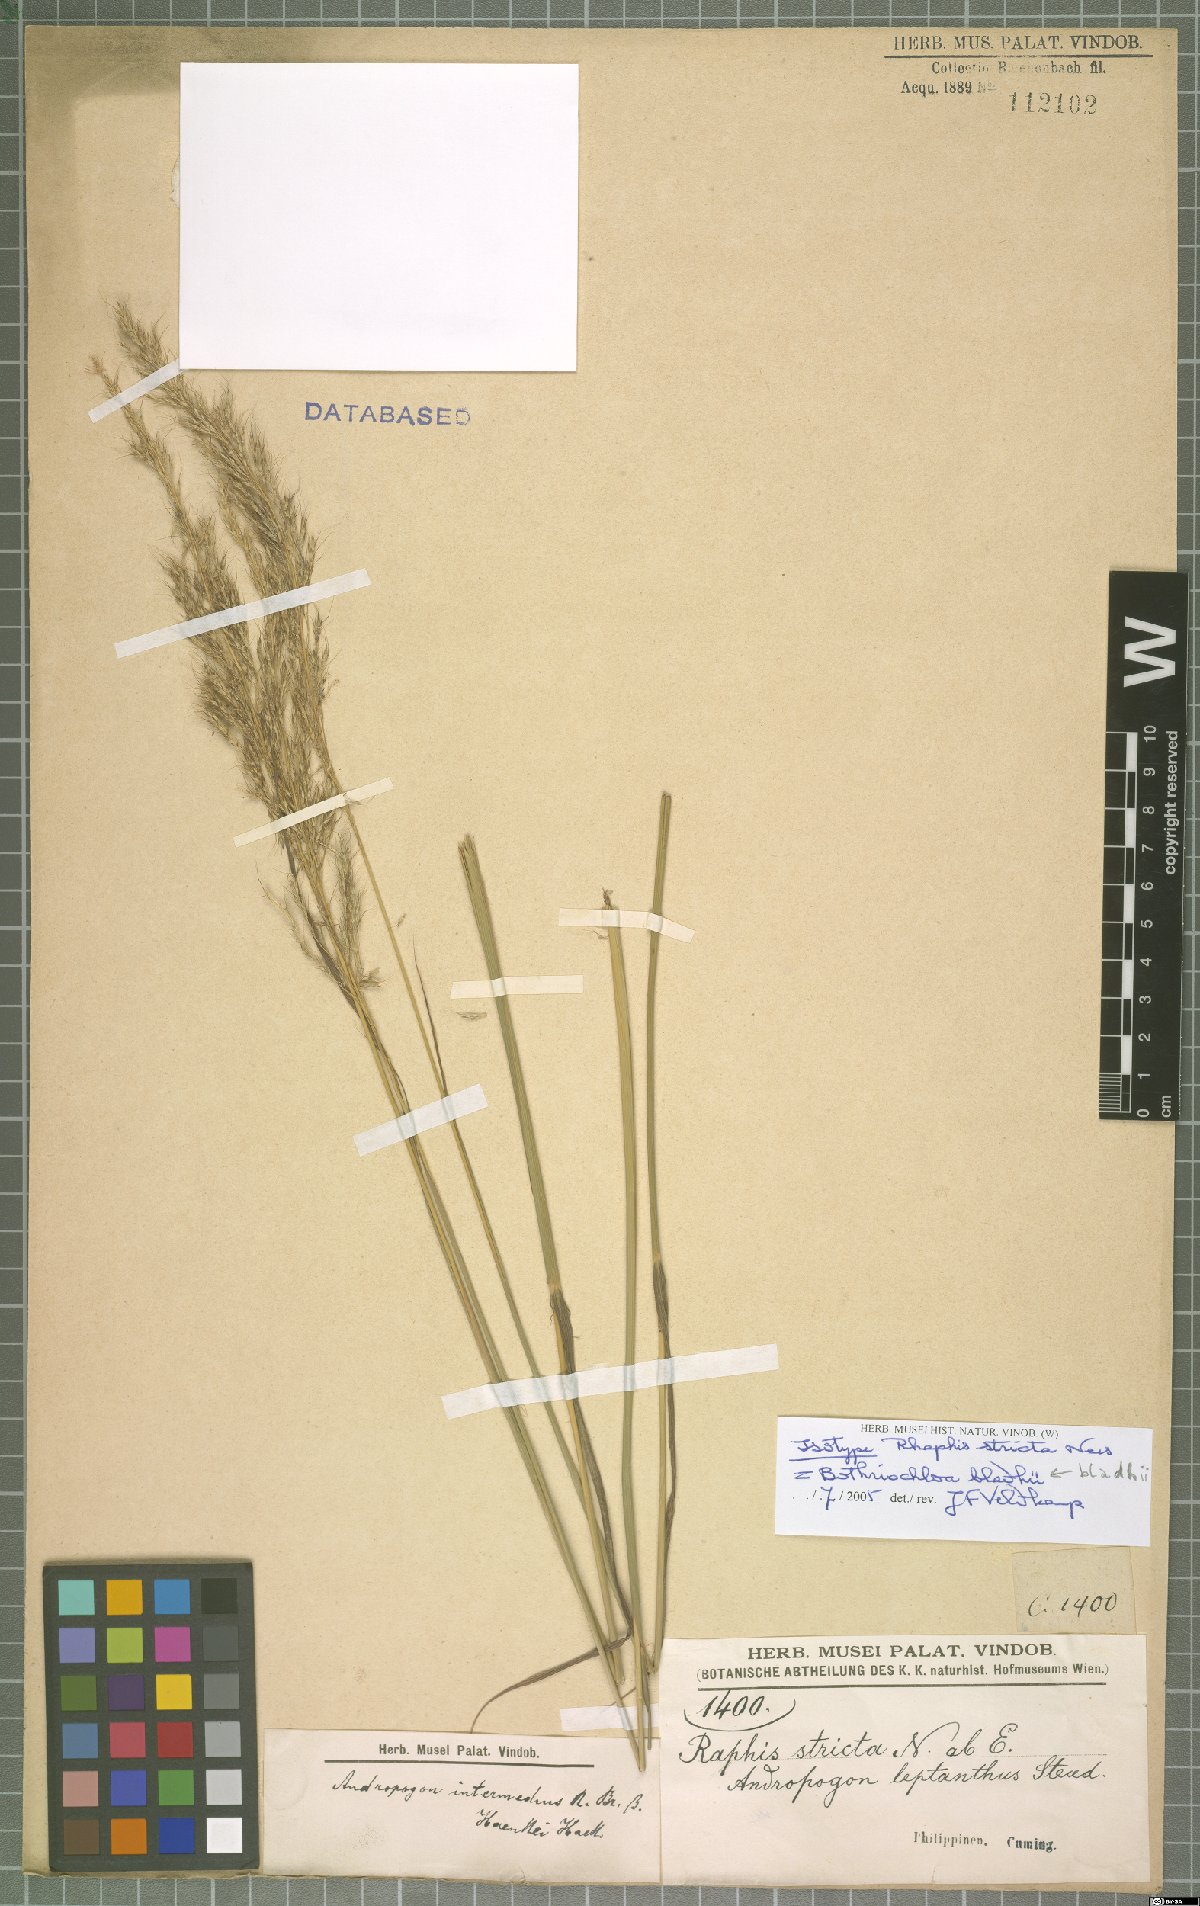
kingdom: Plantae
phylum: Tracheophyta
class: Liliopsida
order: Poales
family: Poaceae
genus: Bothriochloa
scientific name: Bothriochloa bladhii
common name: Caucasian bluestem
